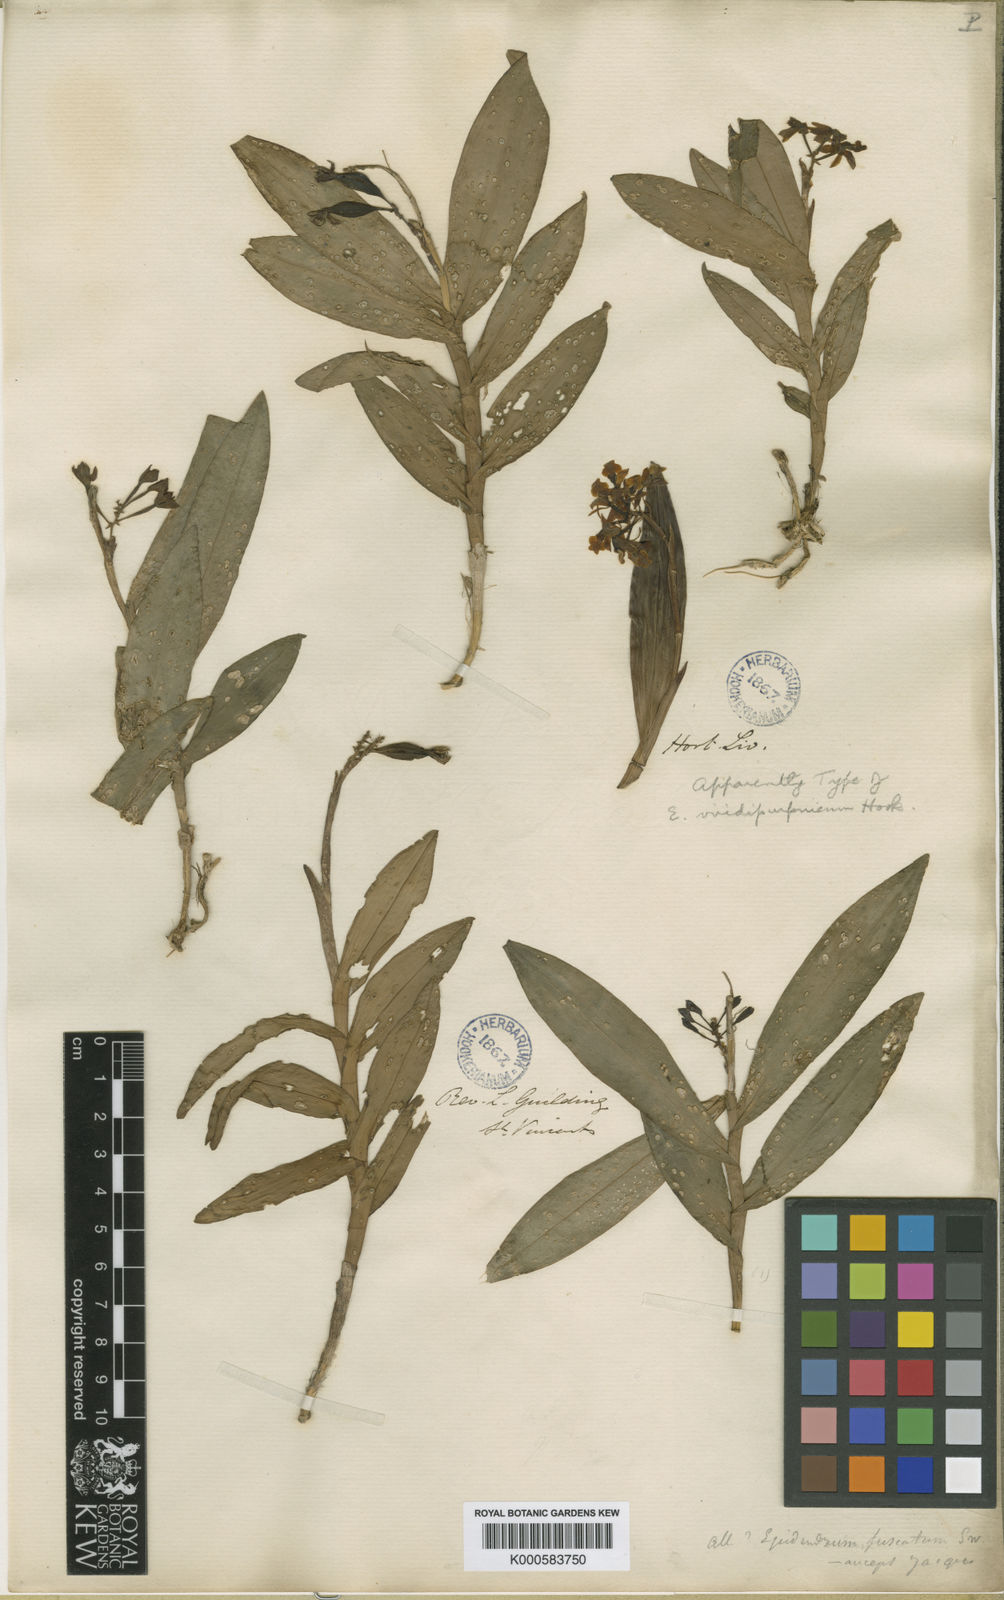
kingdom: Plantae
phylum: Tracheophyta
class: Liliopsida
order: Asparagales
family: Orchidaceae
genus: Epidendrum
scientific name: Epidendrum viridipurpureum
